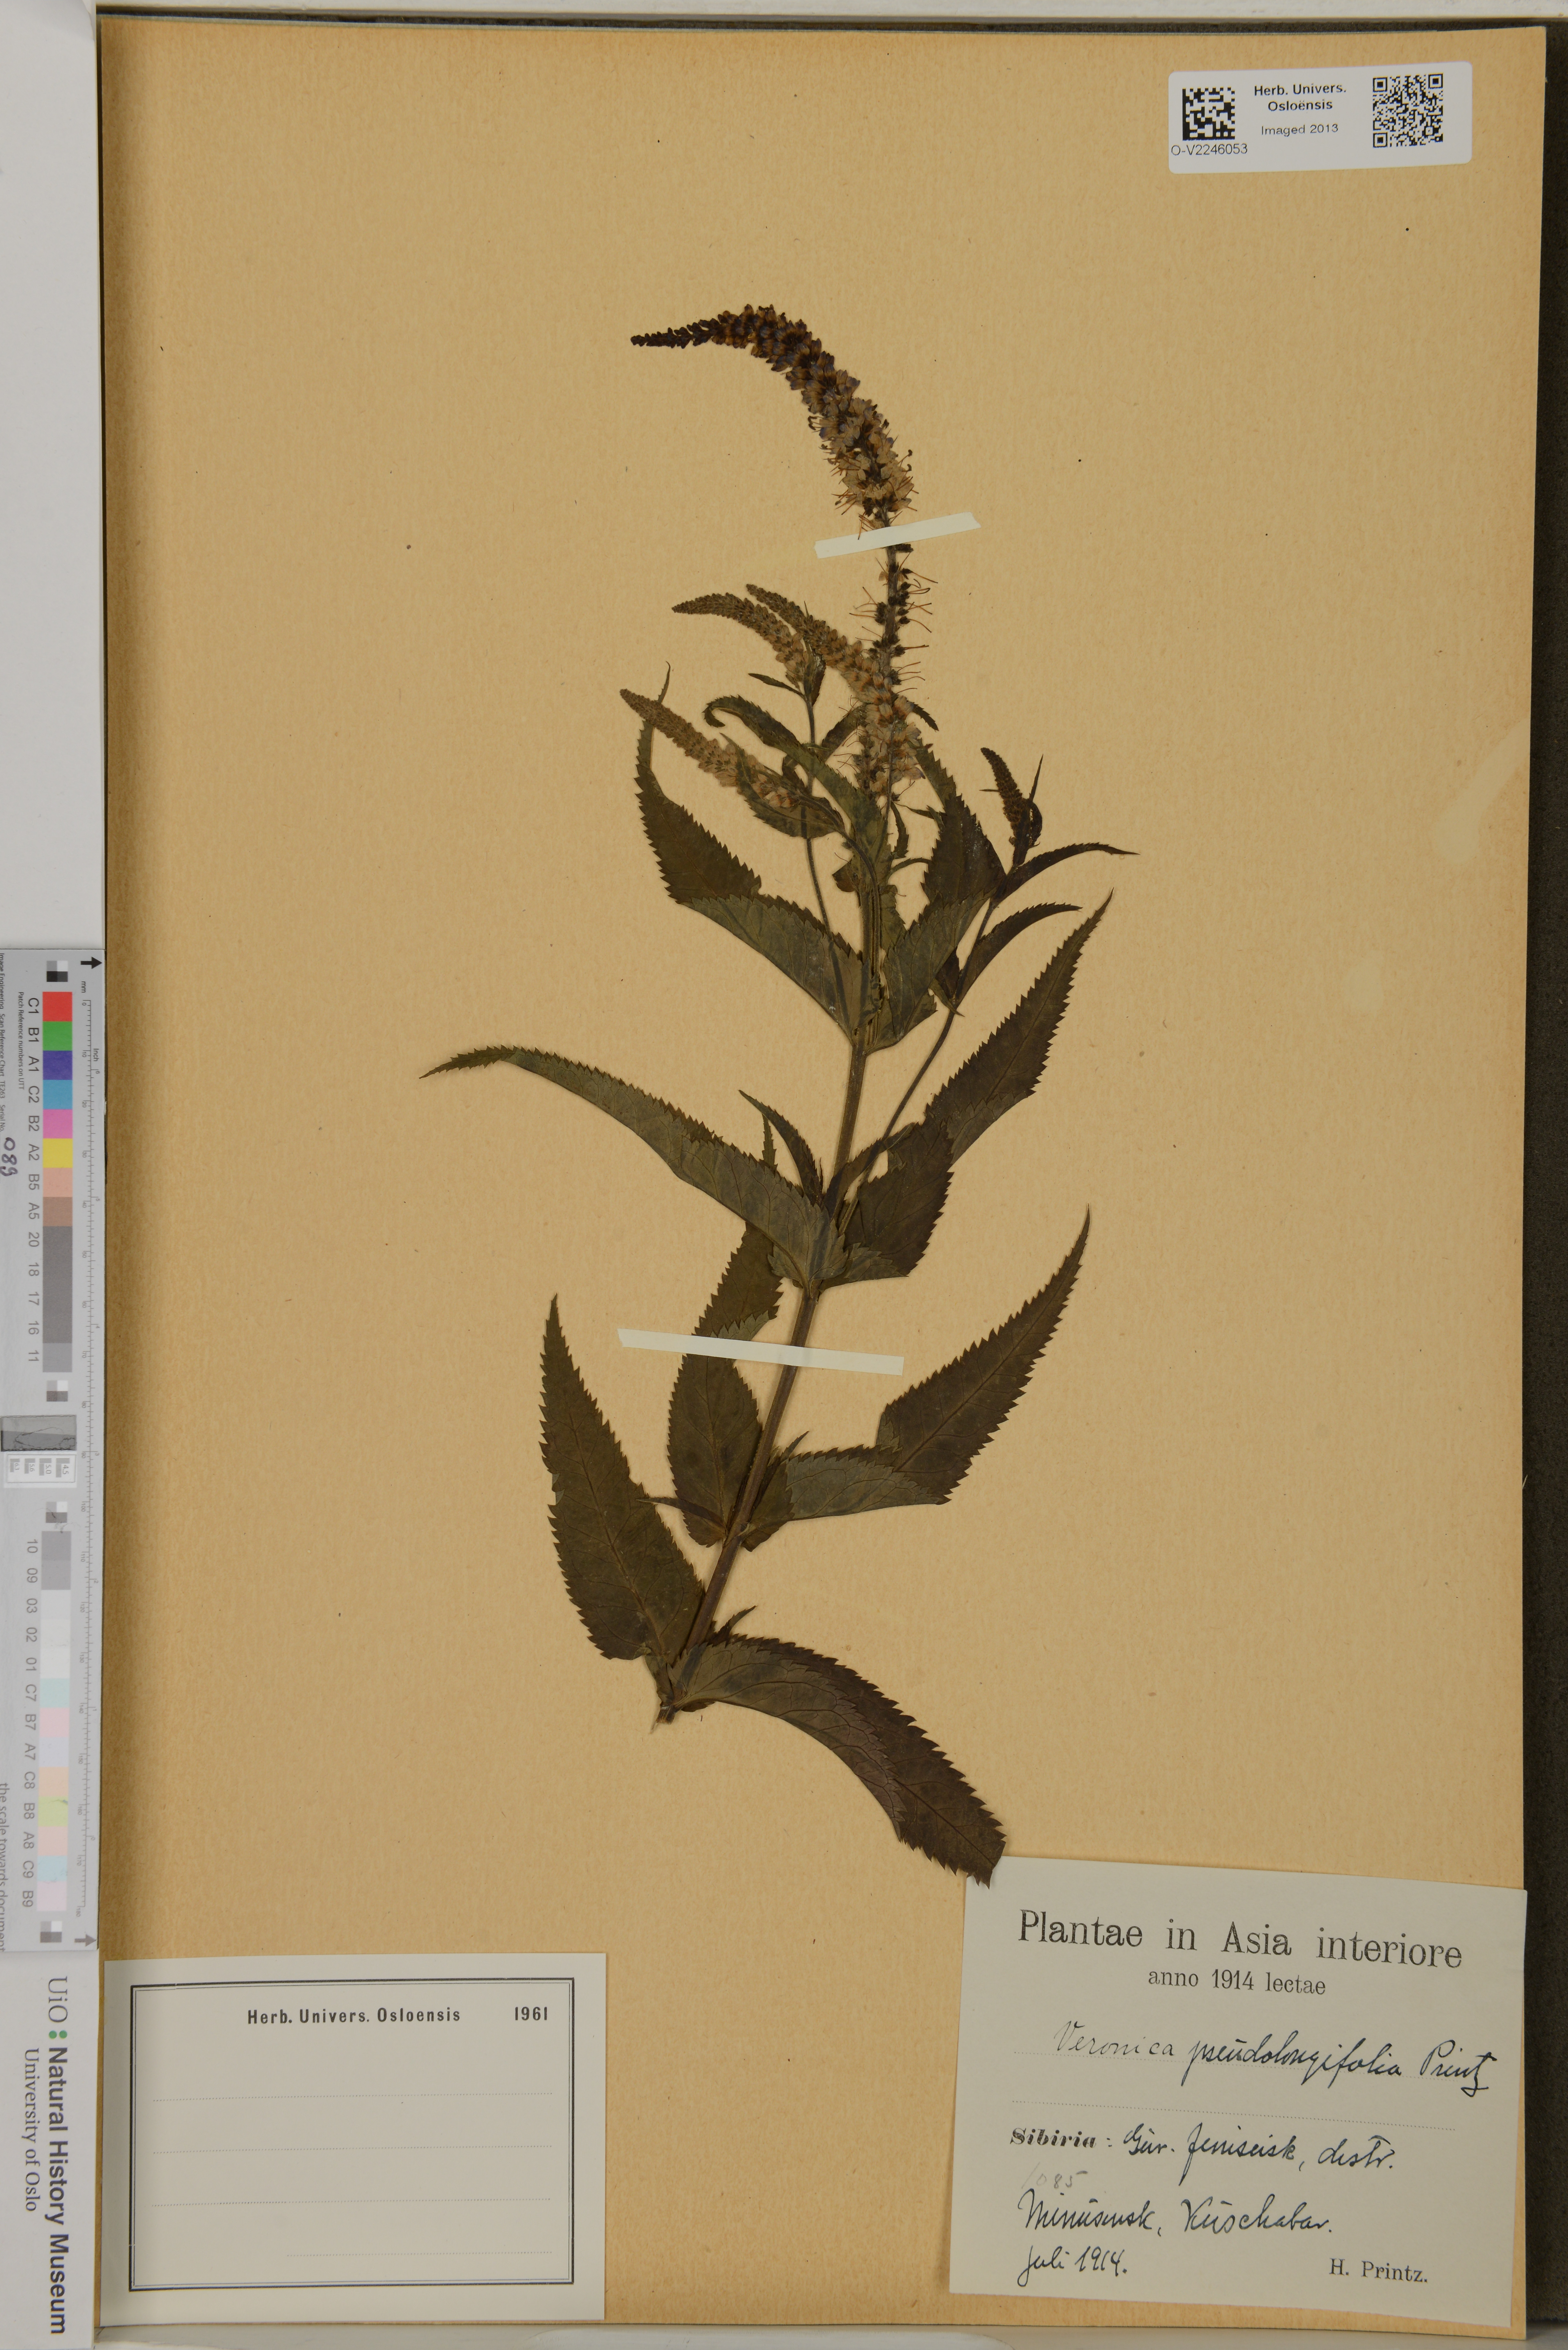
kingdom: Plantae
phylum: Tracheophyta
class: Magnoliopsida
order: Lamiales
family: Plantaginaceae
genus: Veronica
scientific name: Veronica longifolia
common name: Garden speedwell
